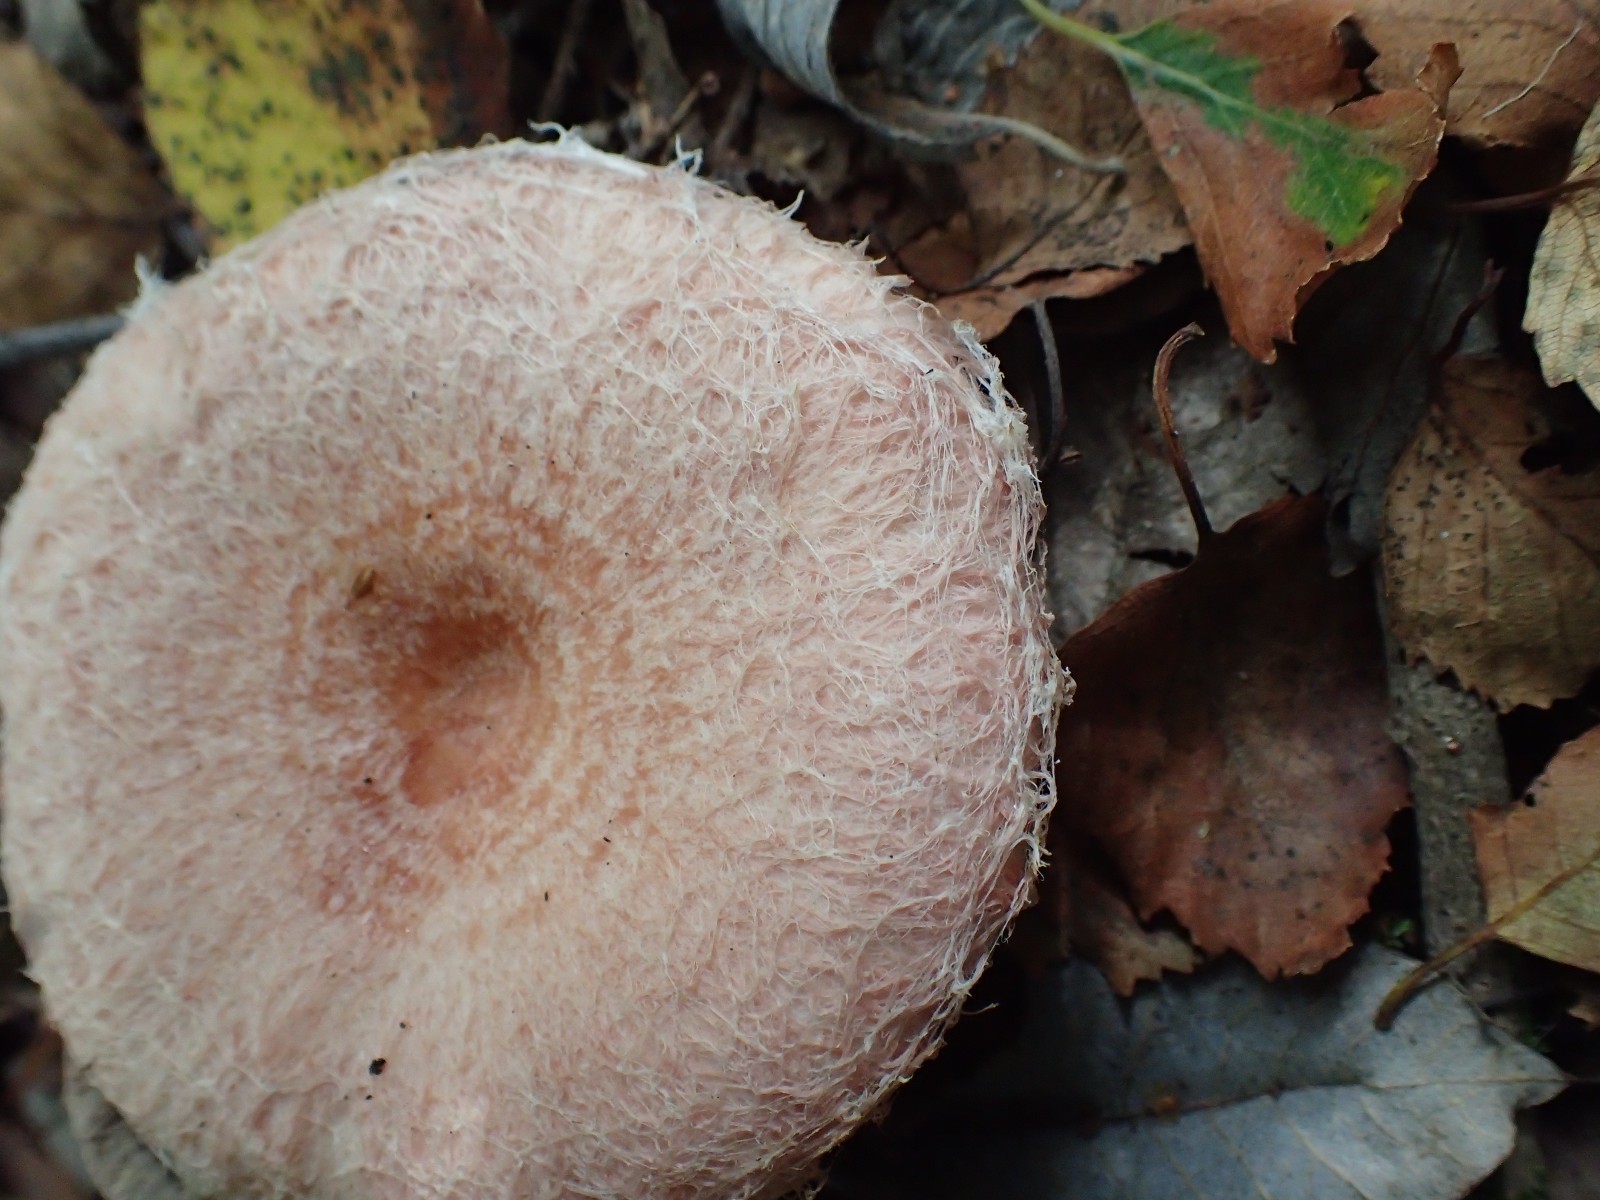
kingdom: Fungi
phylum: Basidiomycota
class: Agaricomycetes
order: Russulales
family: Russulaceae
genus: Lactarius
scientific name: Lactarius torminosus
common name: skægget mælkehat
